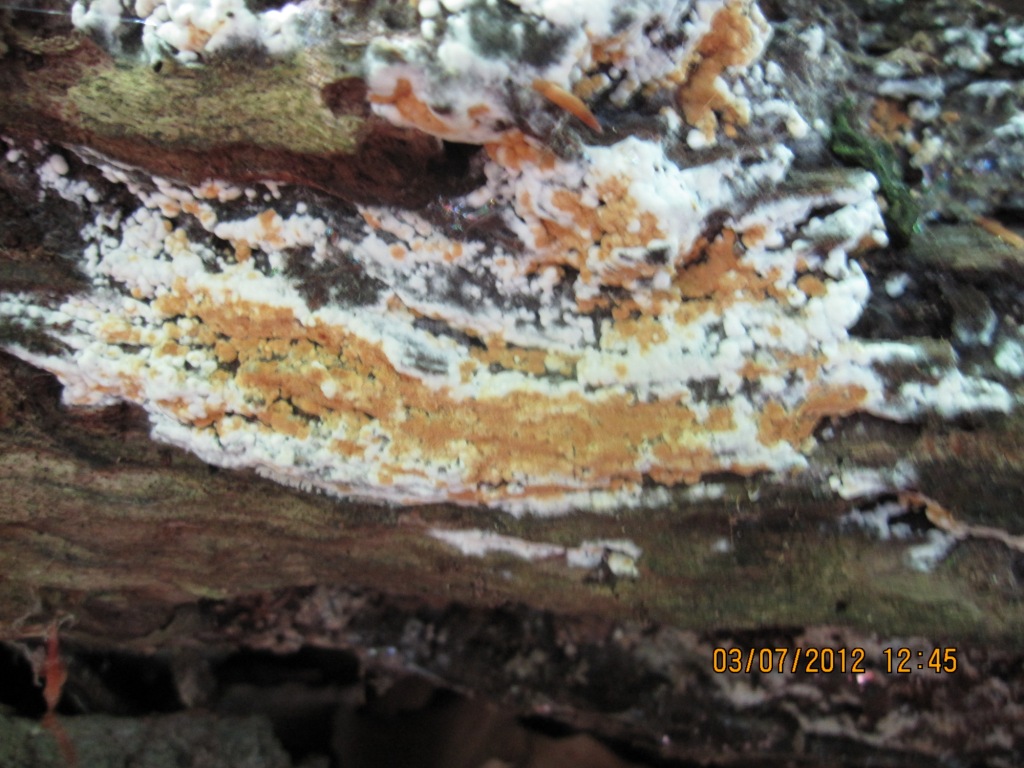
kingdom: Fungi
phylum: Basidiomycota
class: Agaricomycetes
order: Cantharellales
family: Botryobasidiaceae
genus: Botryobasidium
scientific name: Botryobasidium aureum
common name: gylden spindhinde
